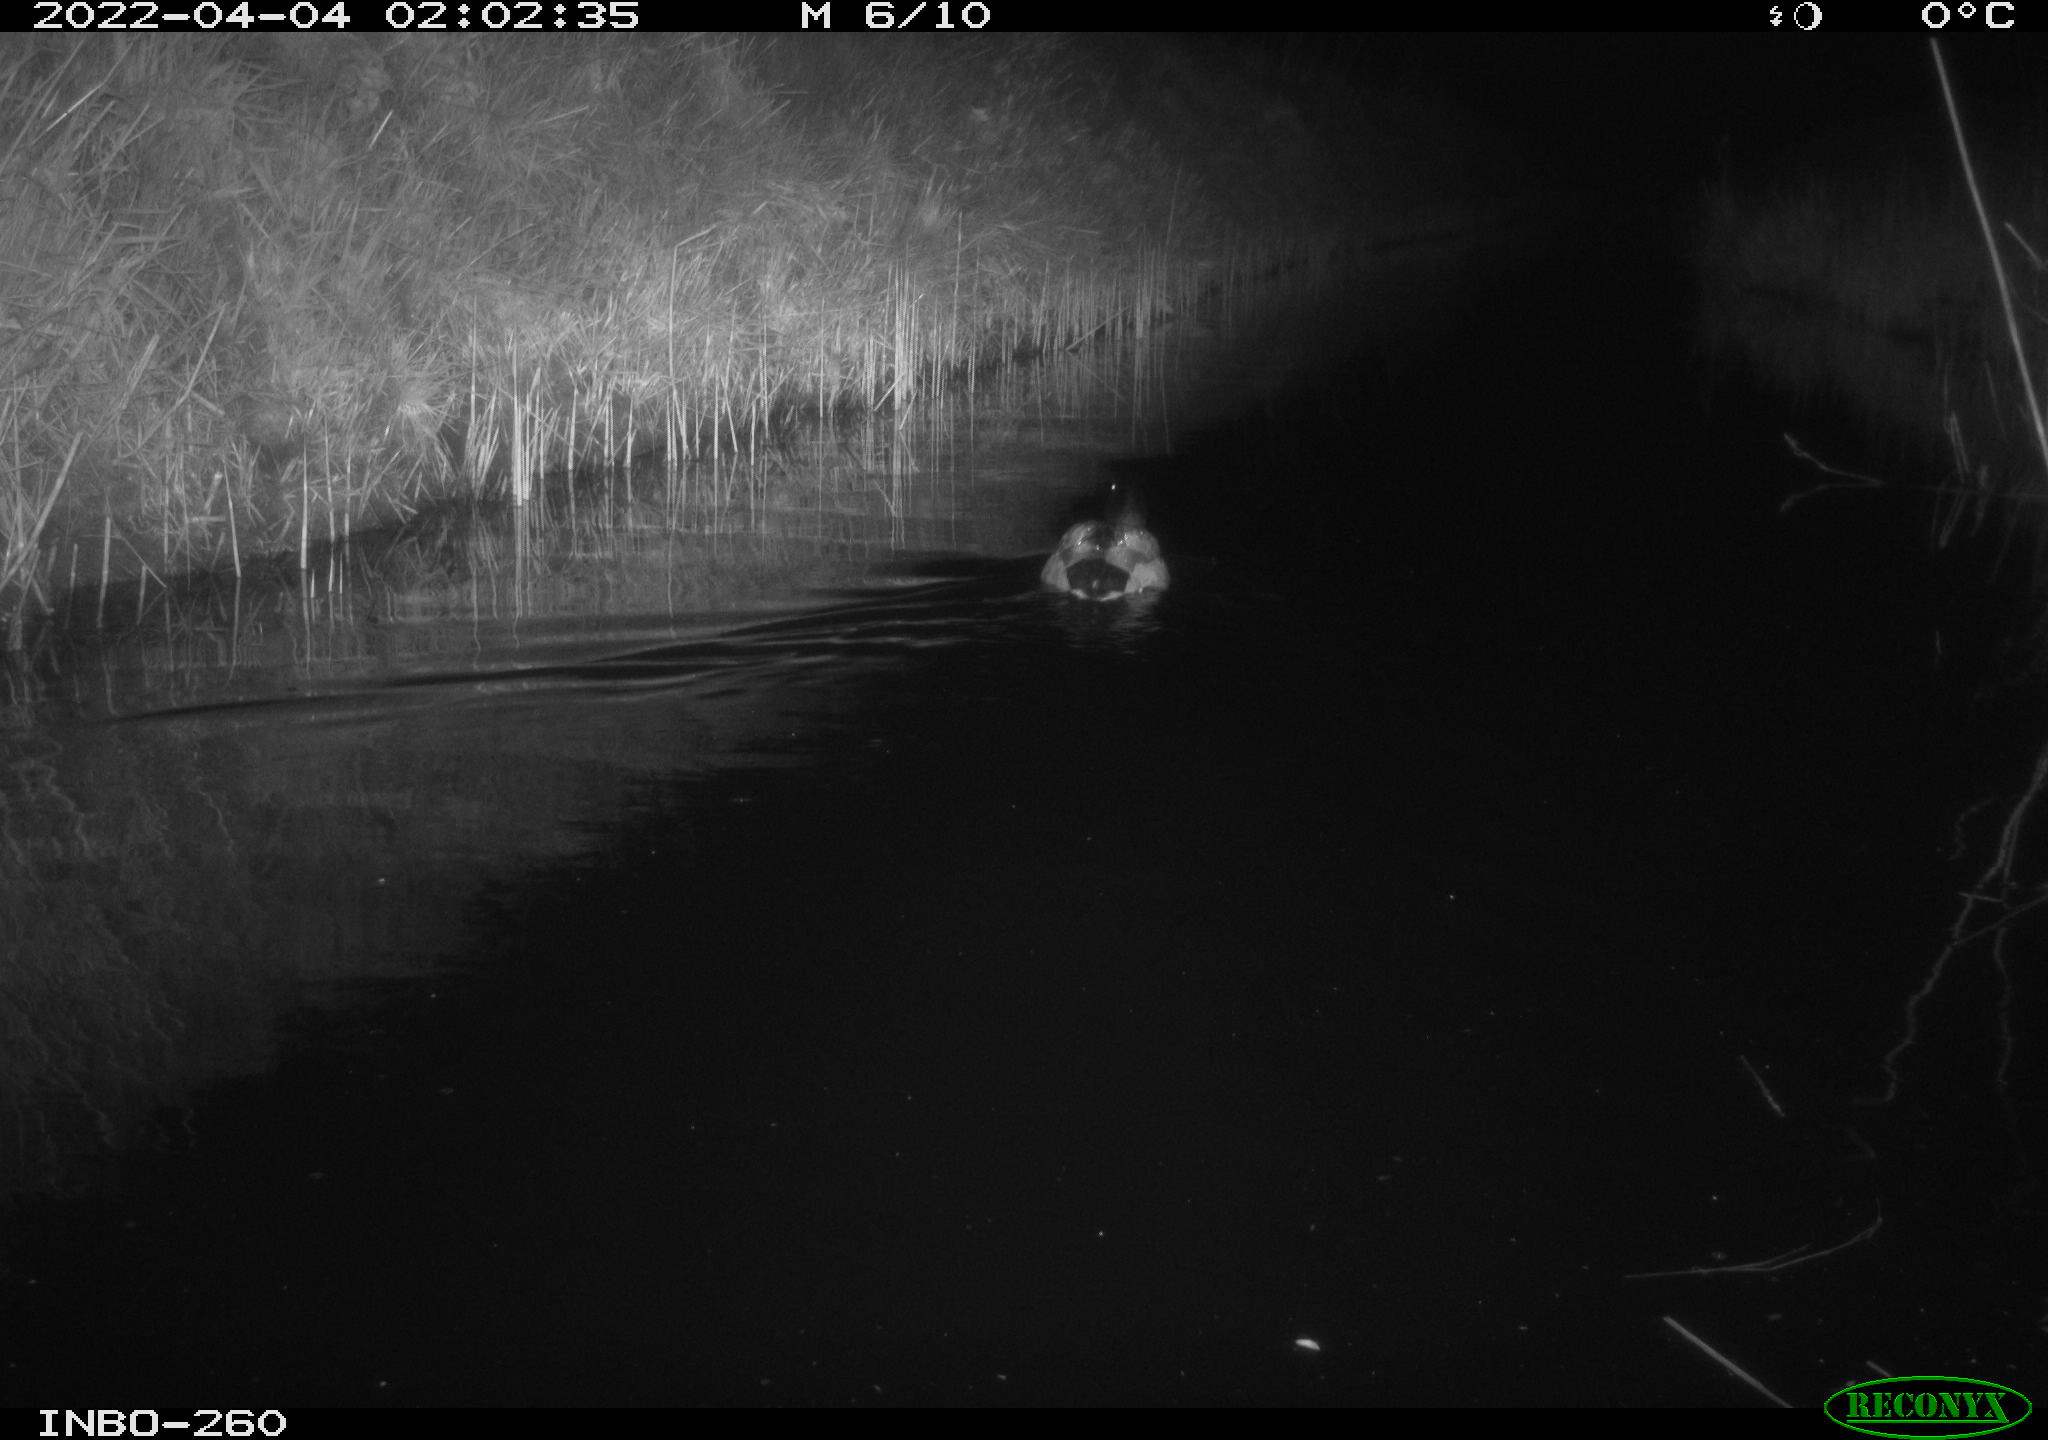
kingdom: Animalia
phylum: Chordata
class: Aves
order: Anseriformes
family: Anatidae
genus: Anas
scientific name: Anas platyrhynchos
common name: Mallard
